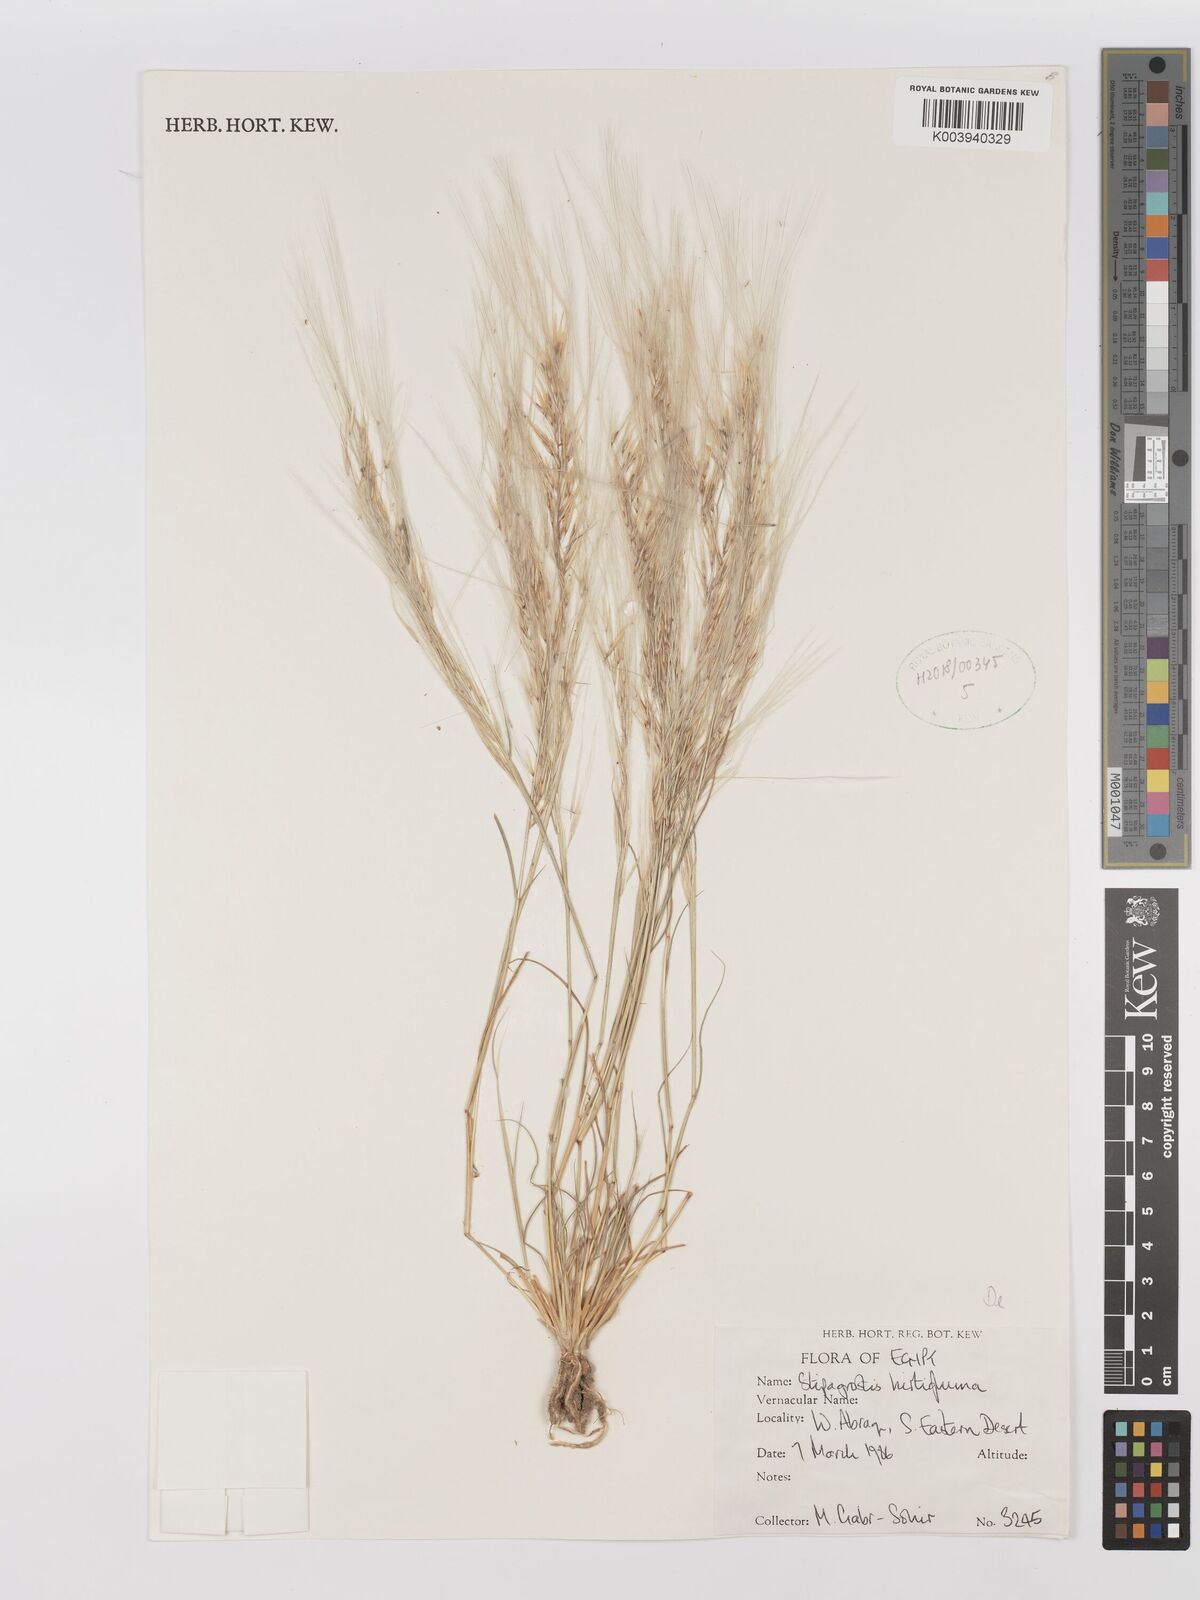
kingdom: Plantae
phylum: Tracheophyta
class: Liliopsida
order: Poales
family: Poaceae
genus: Stipagrostis
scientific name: Stipagrostis hirtigluma
